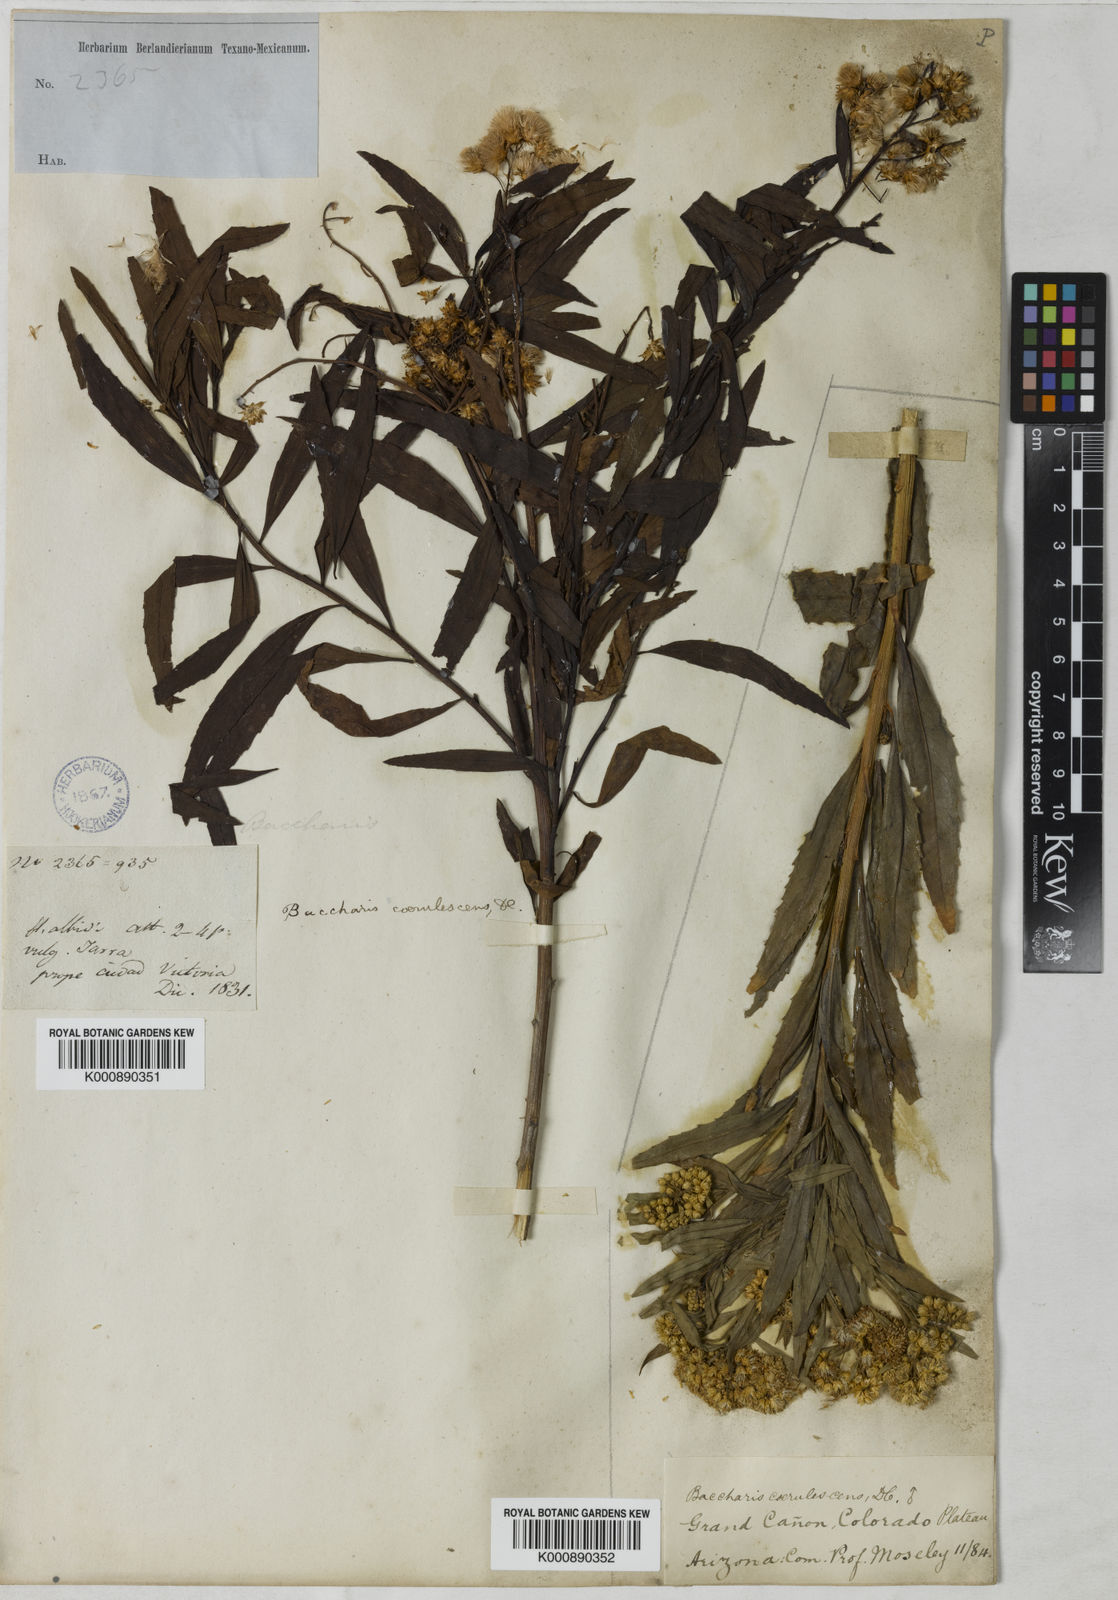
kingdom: Plantae
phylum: Tracheophyta
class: Magnoliopsida
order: Asterales
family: Asteraceae
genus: Baccharis
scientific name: Baccharis salicifolia
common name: Sticky baccharis
